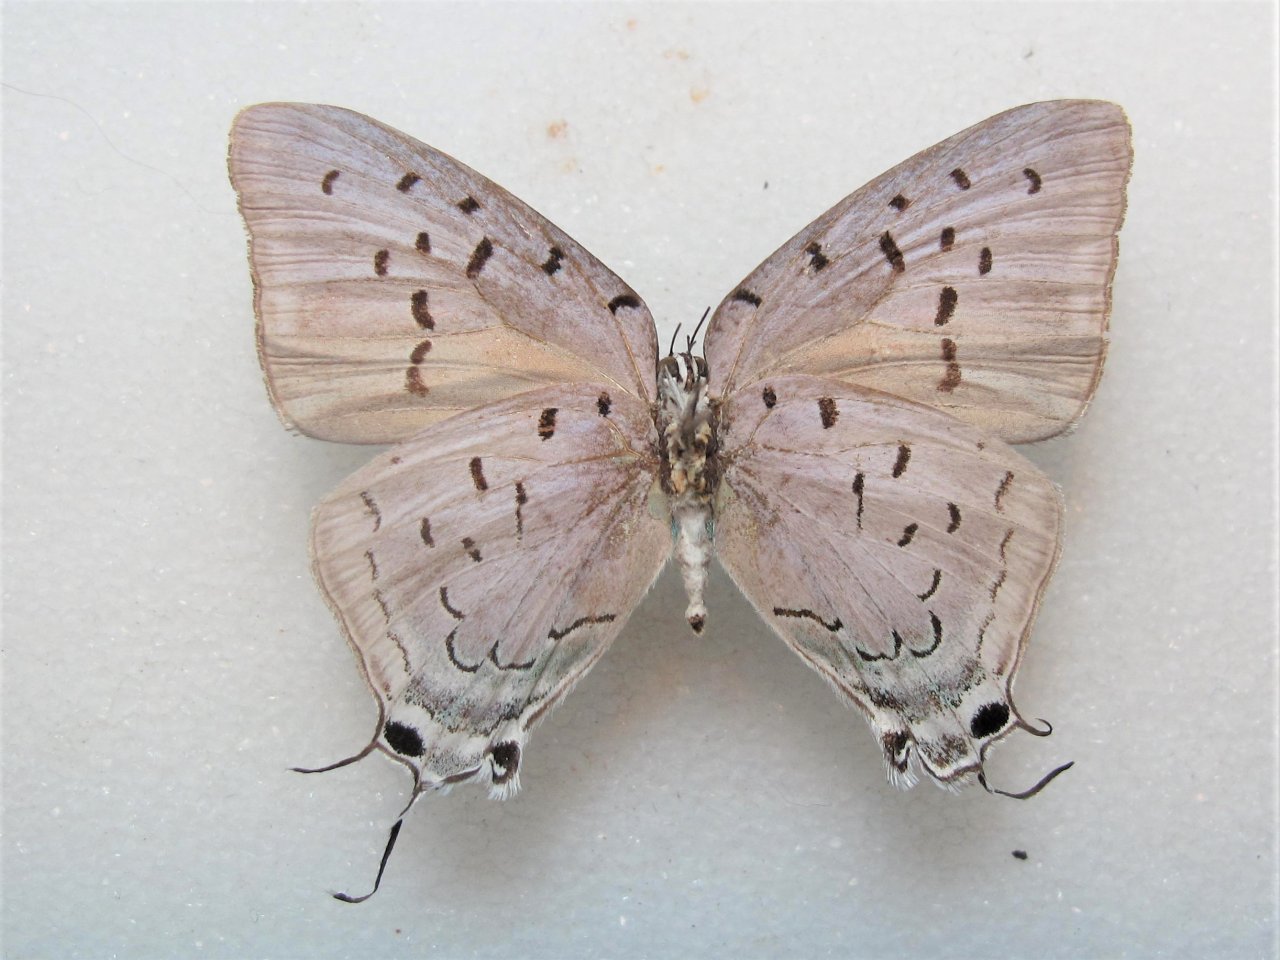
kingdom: Animalia
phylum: Arthropoda
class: Insecta
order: Lepidoptera
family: Lycaenidae
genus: Pseudolycaena
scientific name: Pseudolycaena damo
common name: Sky-blue Hairstreak
